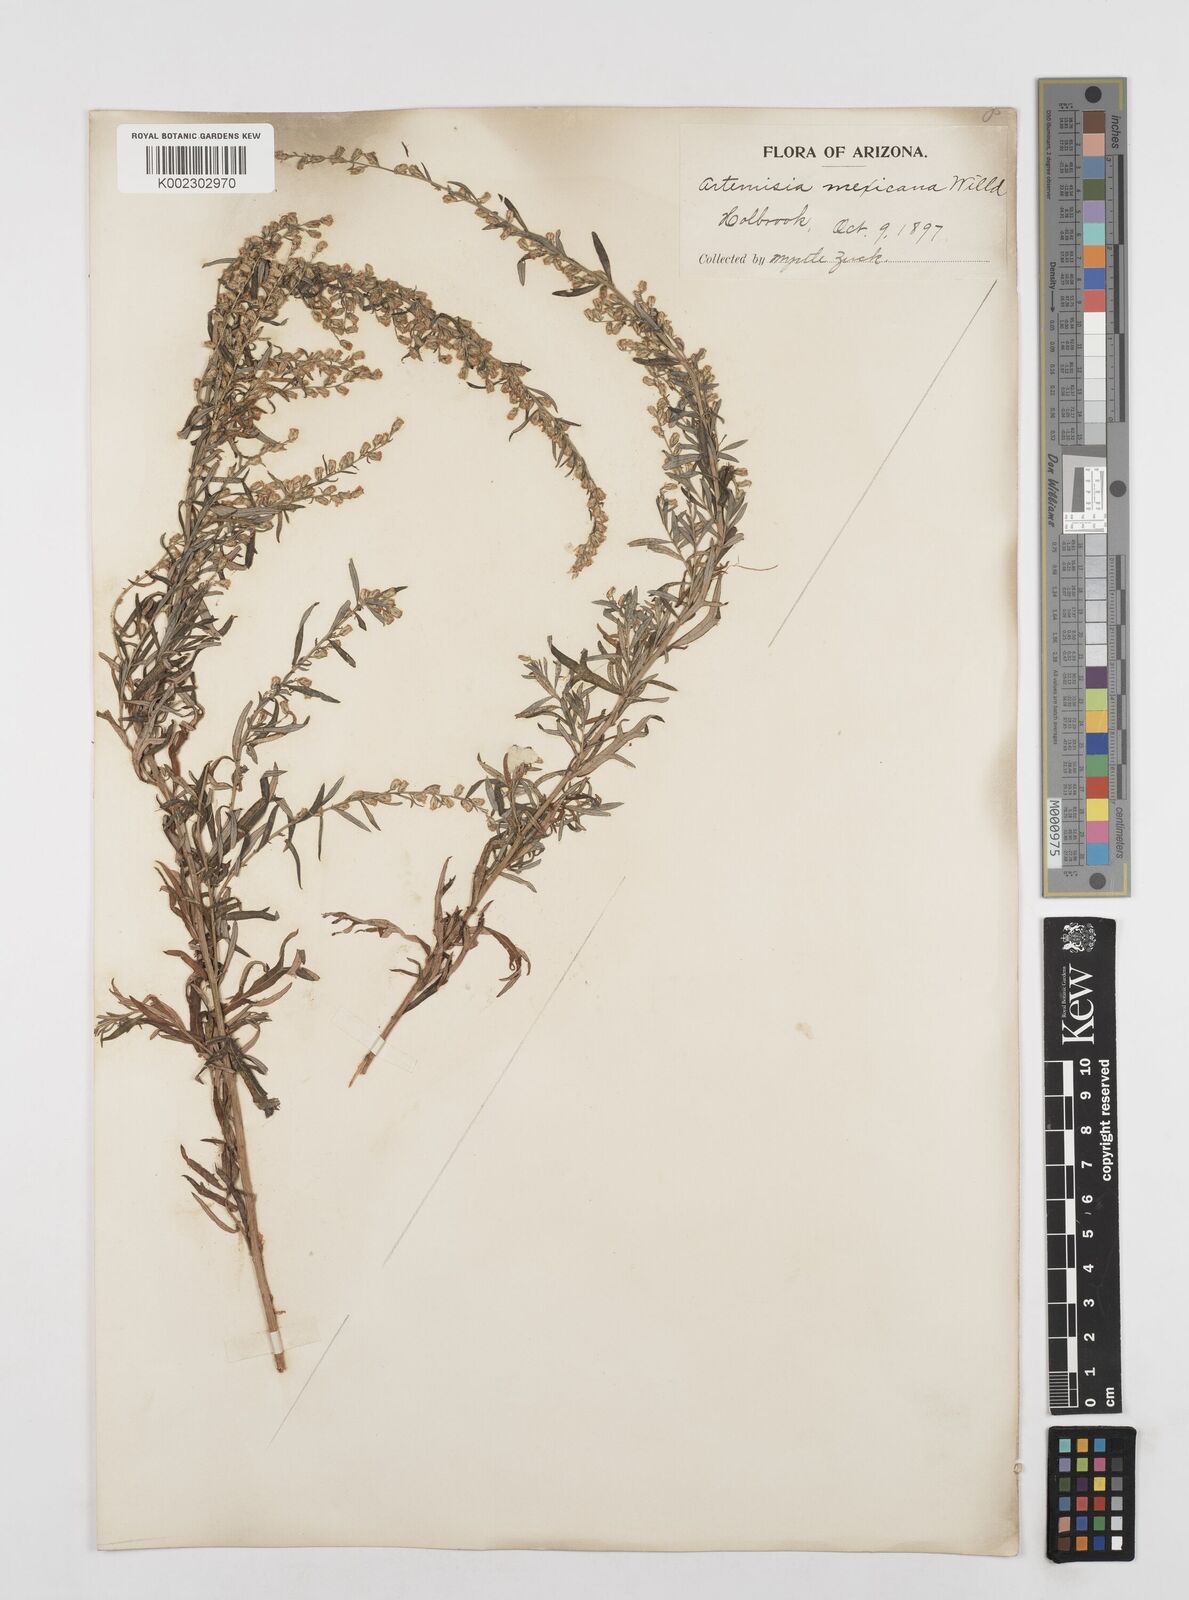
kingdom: Plantae
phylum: Tracheophyta
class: Magnoliopsida
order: Asterales
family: Asteraceae
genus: Artemisia
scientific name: Artemisia ludoviciana
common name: Western mugwort
